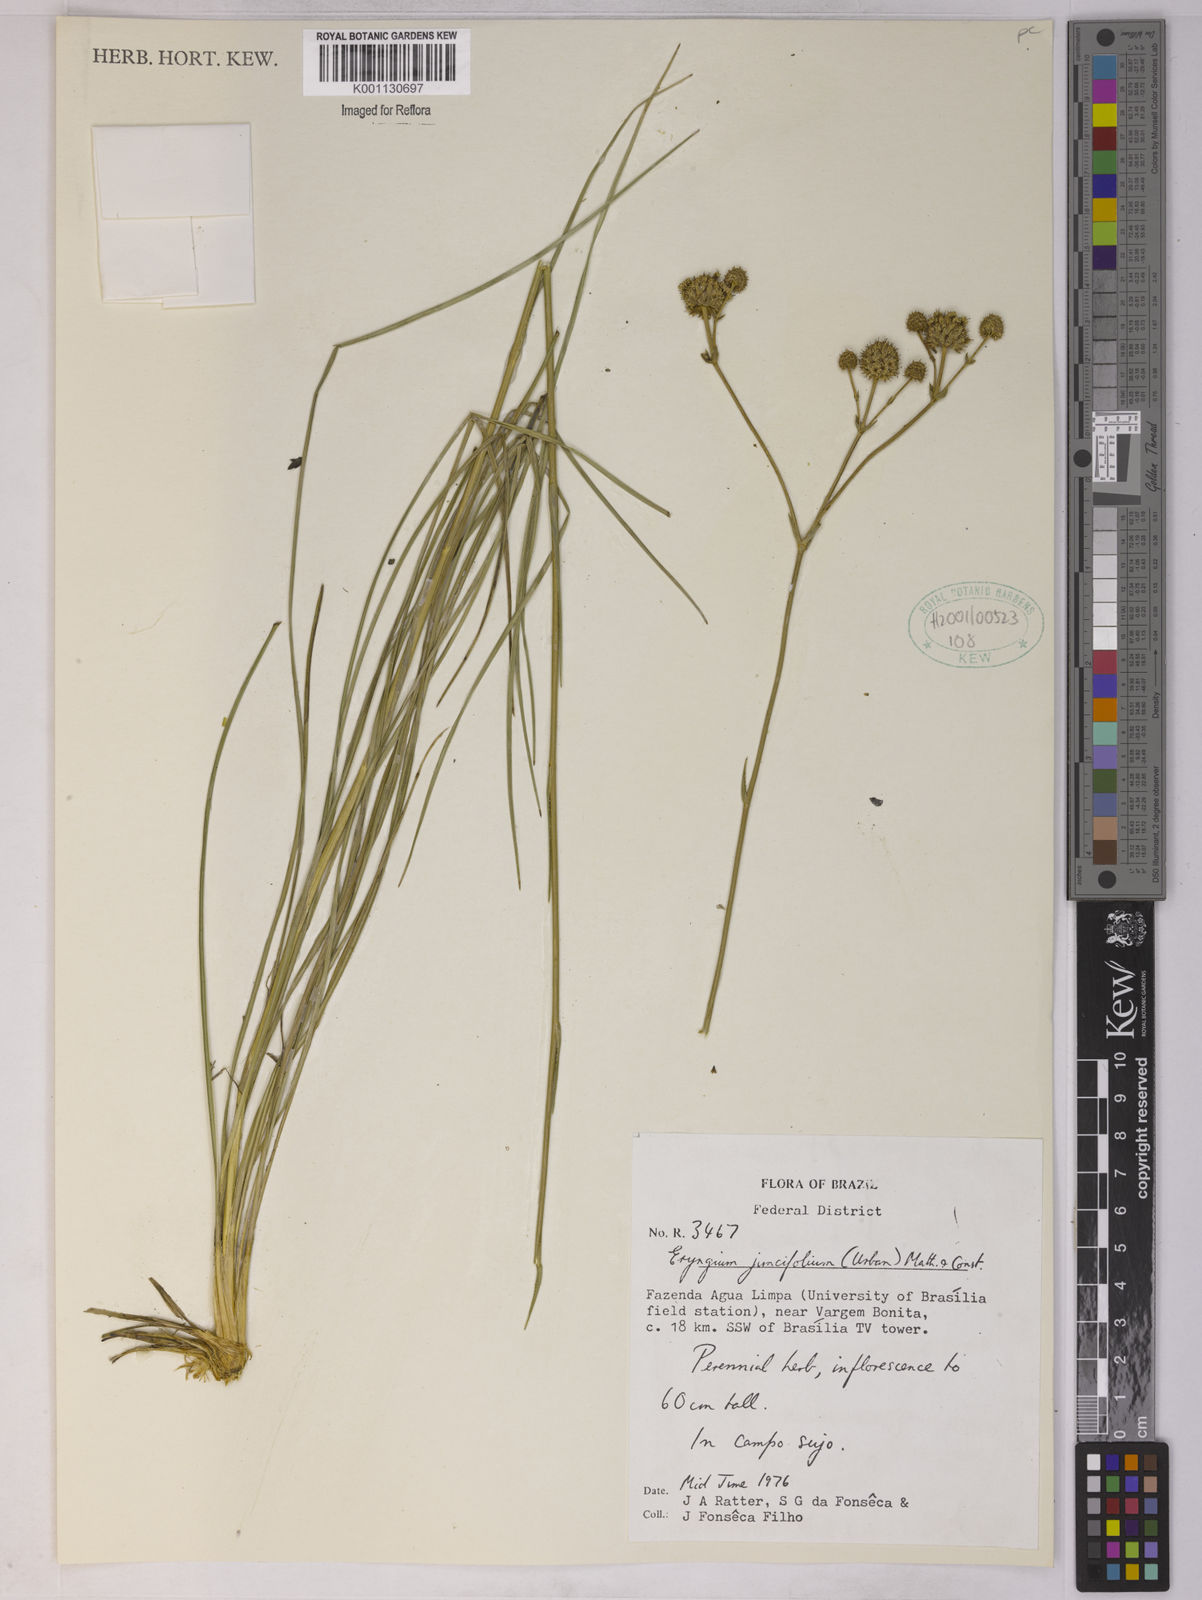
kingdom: Plantae
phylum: Tracheophyta
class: Magnoliopsida
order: Apiales
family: Apiaceae
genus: Eryngium
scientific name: Eryngium juncifolium
